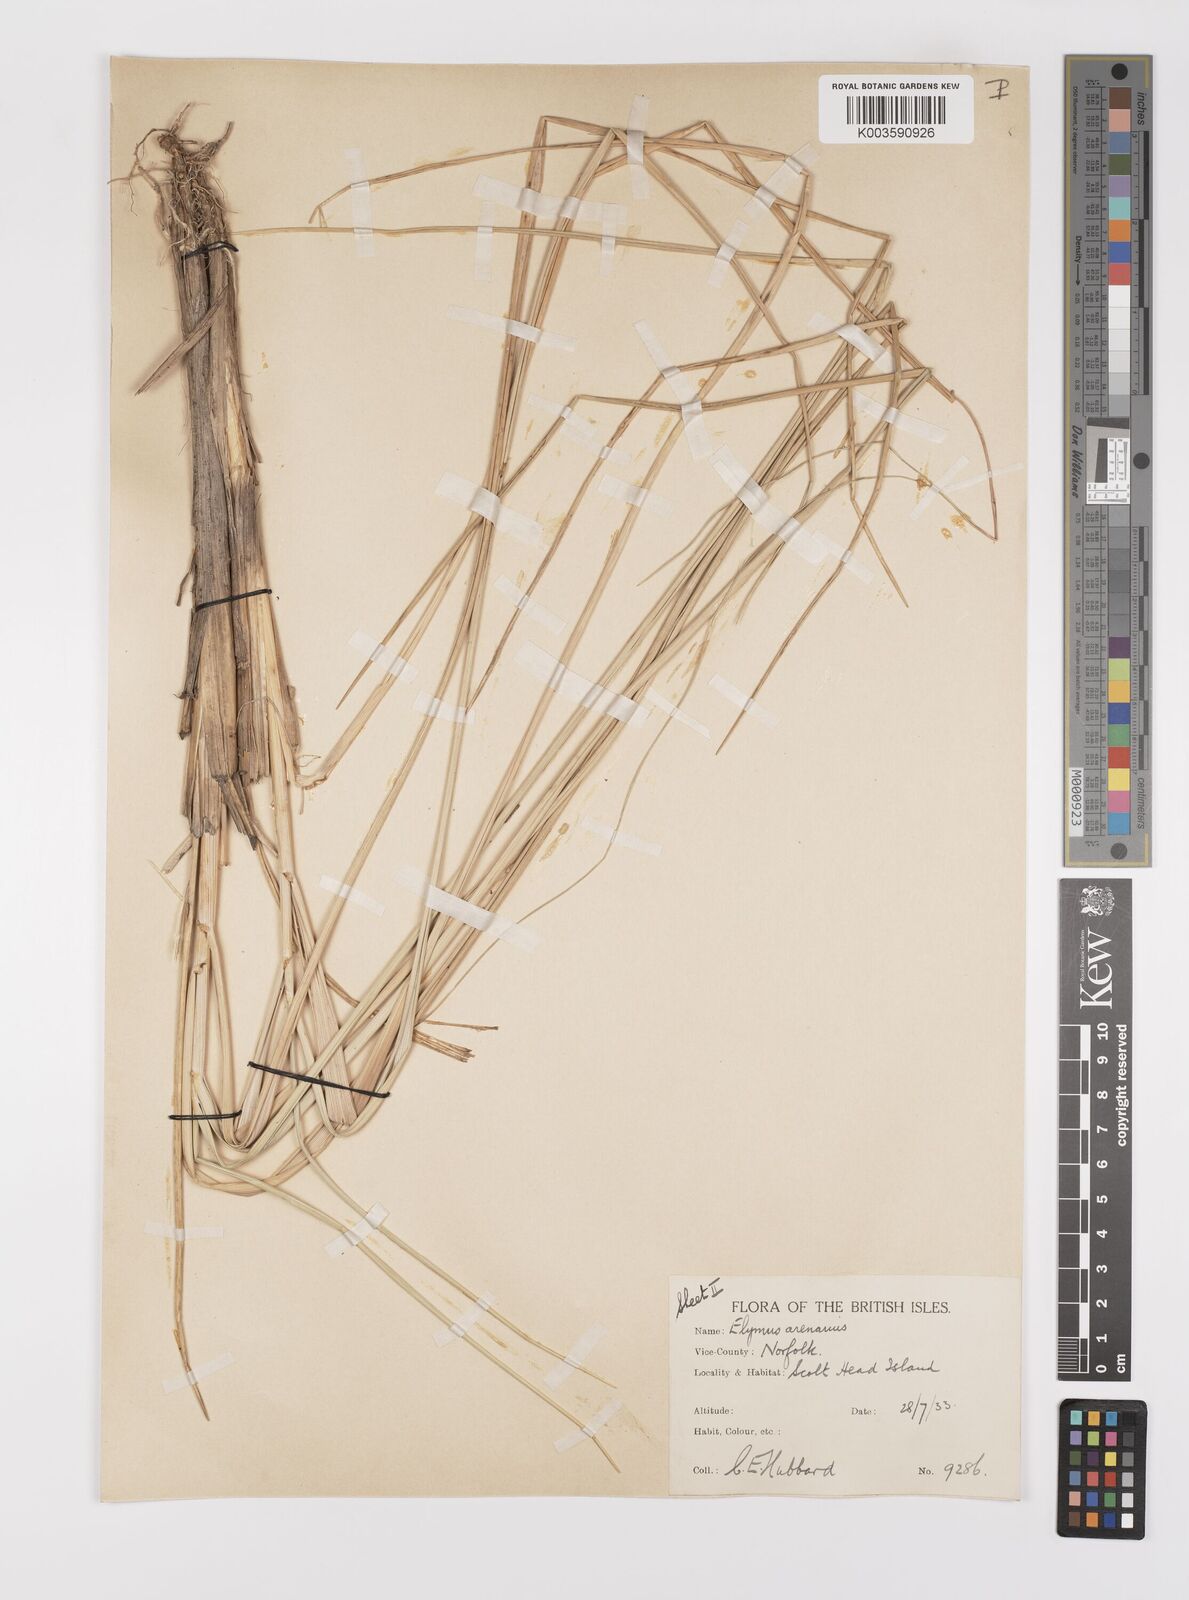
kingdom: Plantae
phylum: Tracheophyta
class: Liliopsida
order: Poales
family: Poaceae
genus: Leymus
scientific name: Leymus arenarius
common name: Lyme-grass
